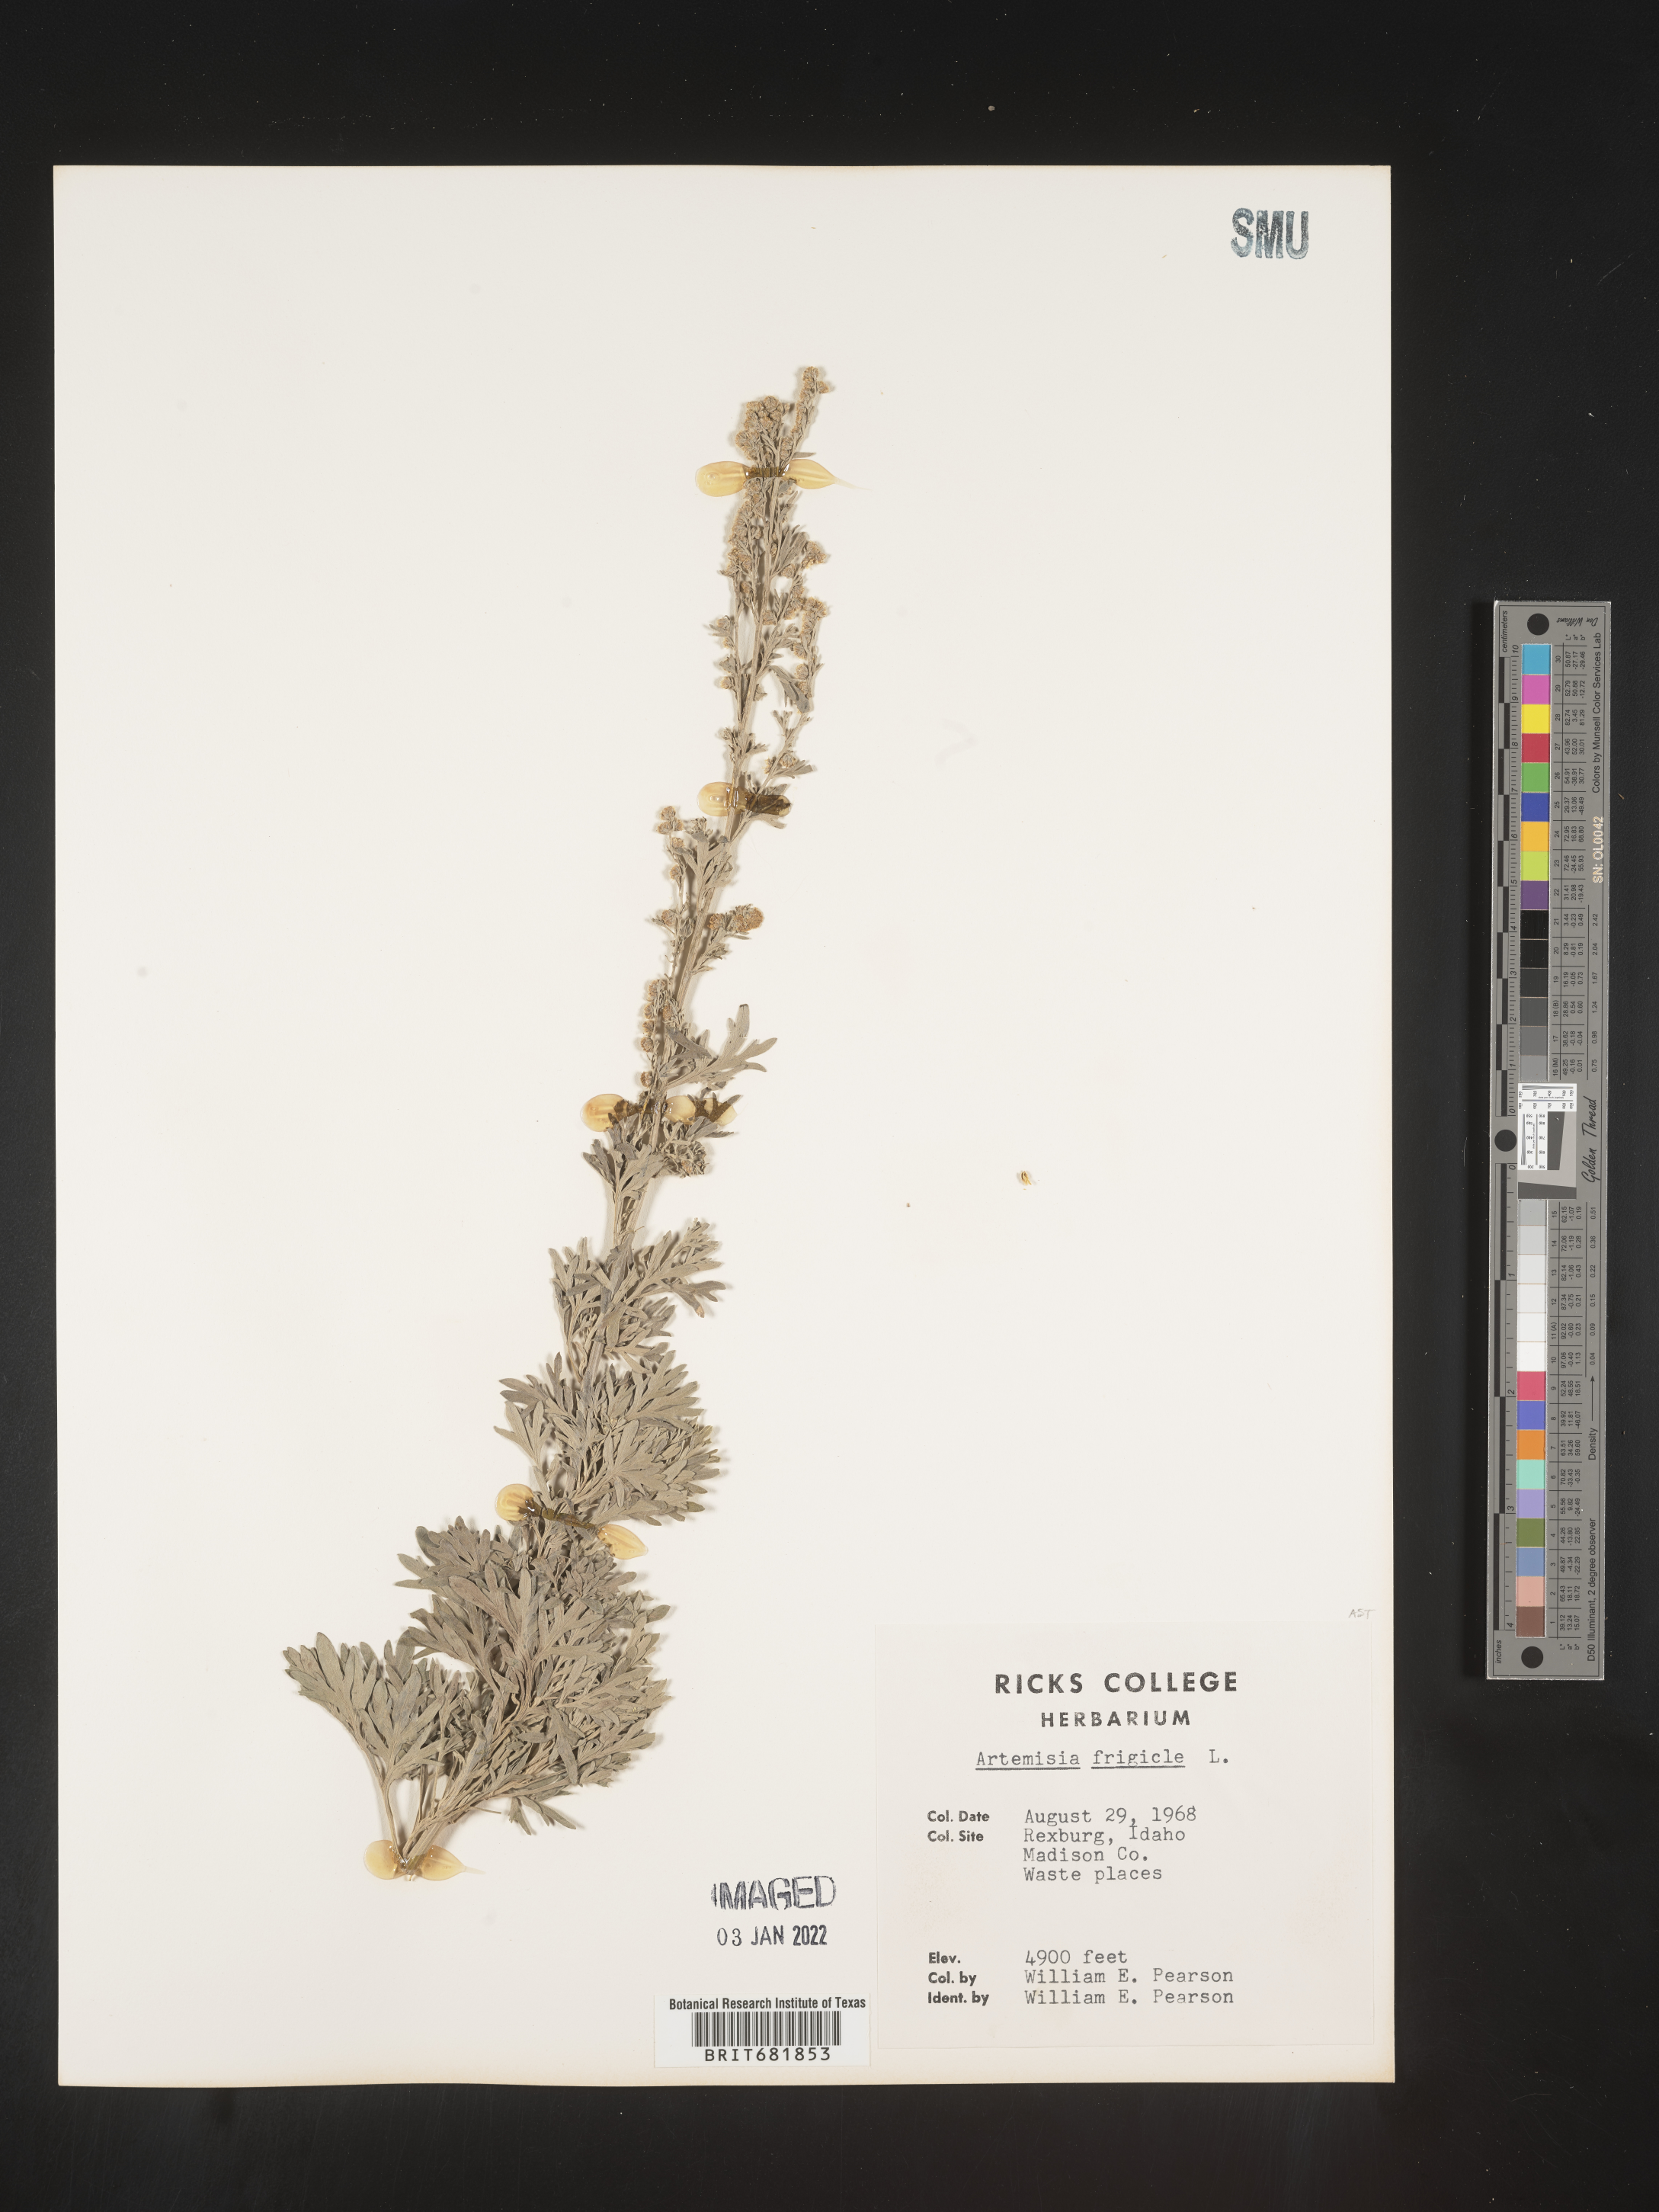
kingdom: Plantae
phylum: Tracheophyta
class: Magnoliopsida
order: Asterales
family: Asteraceae
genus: Artemisia
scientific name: Artemisia frigida
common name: Prairie sagewort
